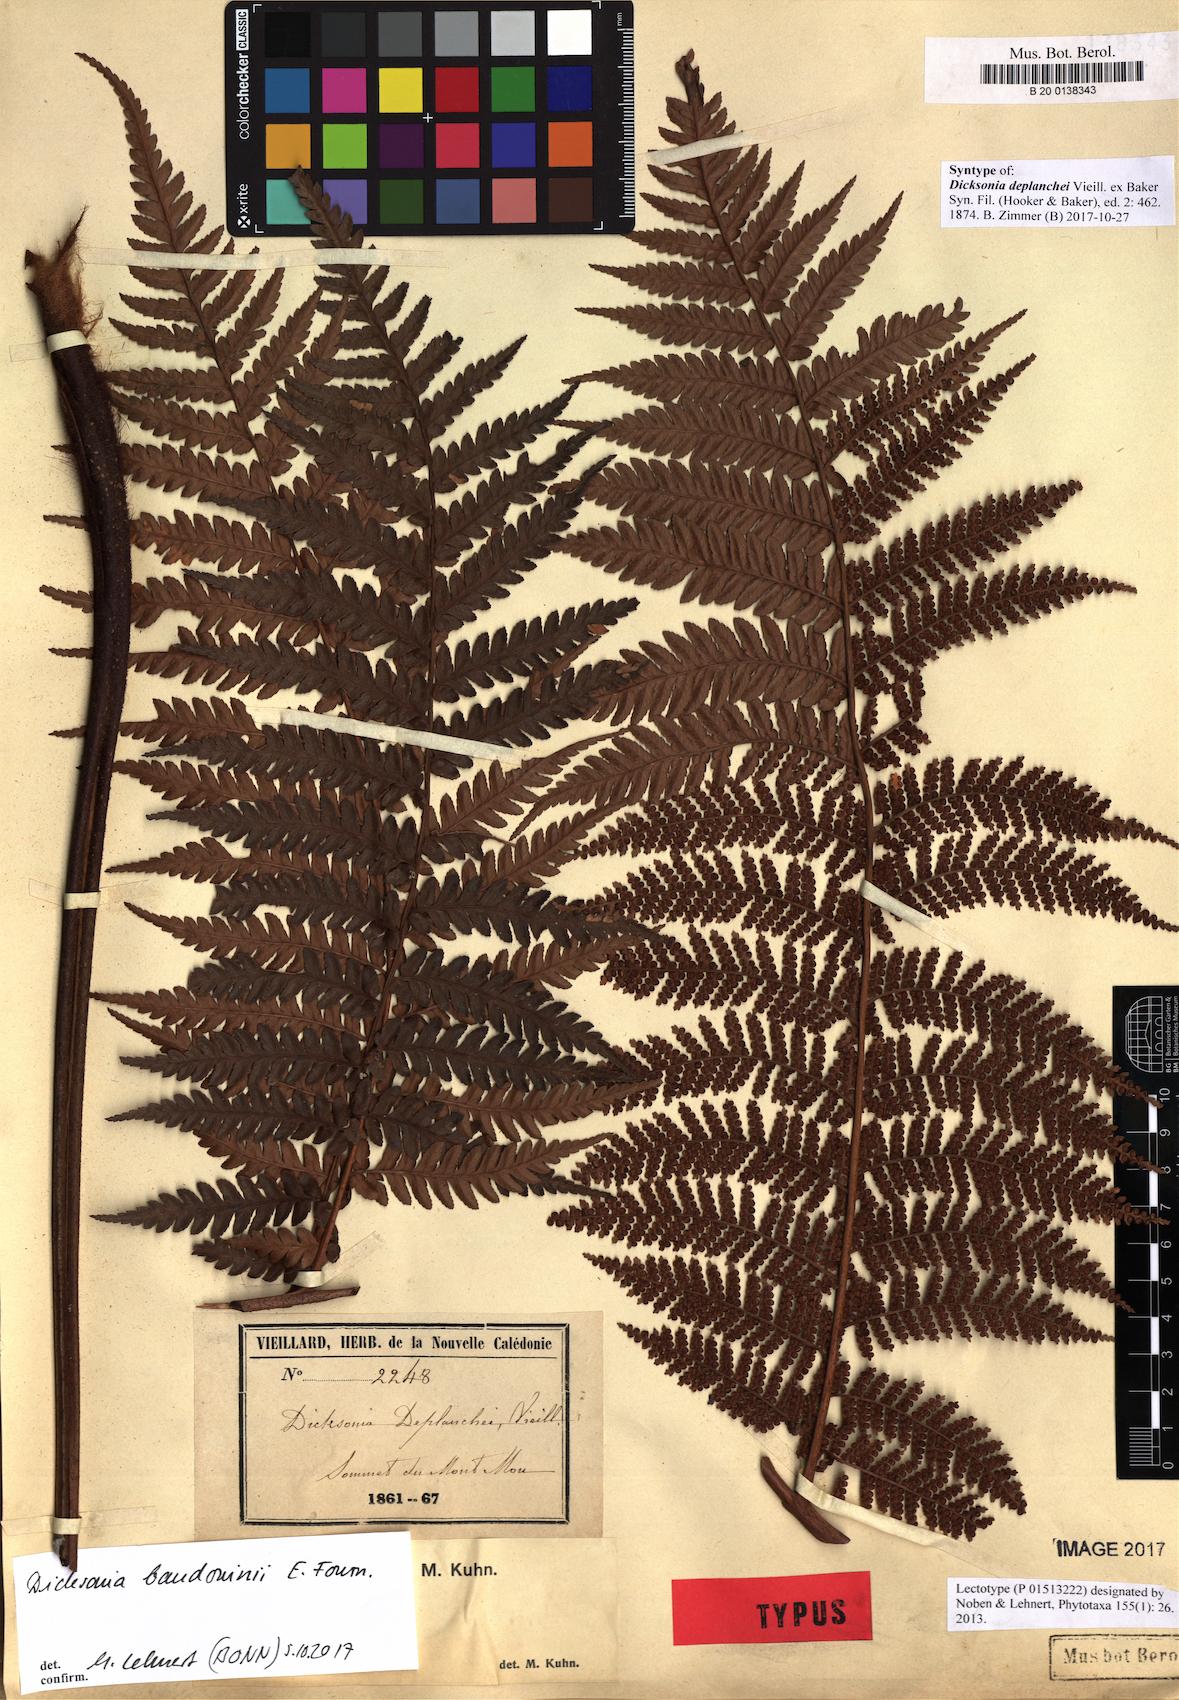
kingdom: Plantae
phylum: Tracheophyta
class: Polypodiopsida
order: Cyatheales
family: Dicksoniaceae
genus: Dicksonia
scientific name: Dicksonia baudouinii
